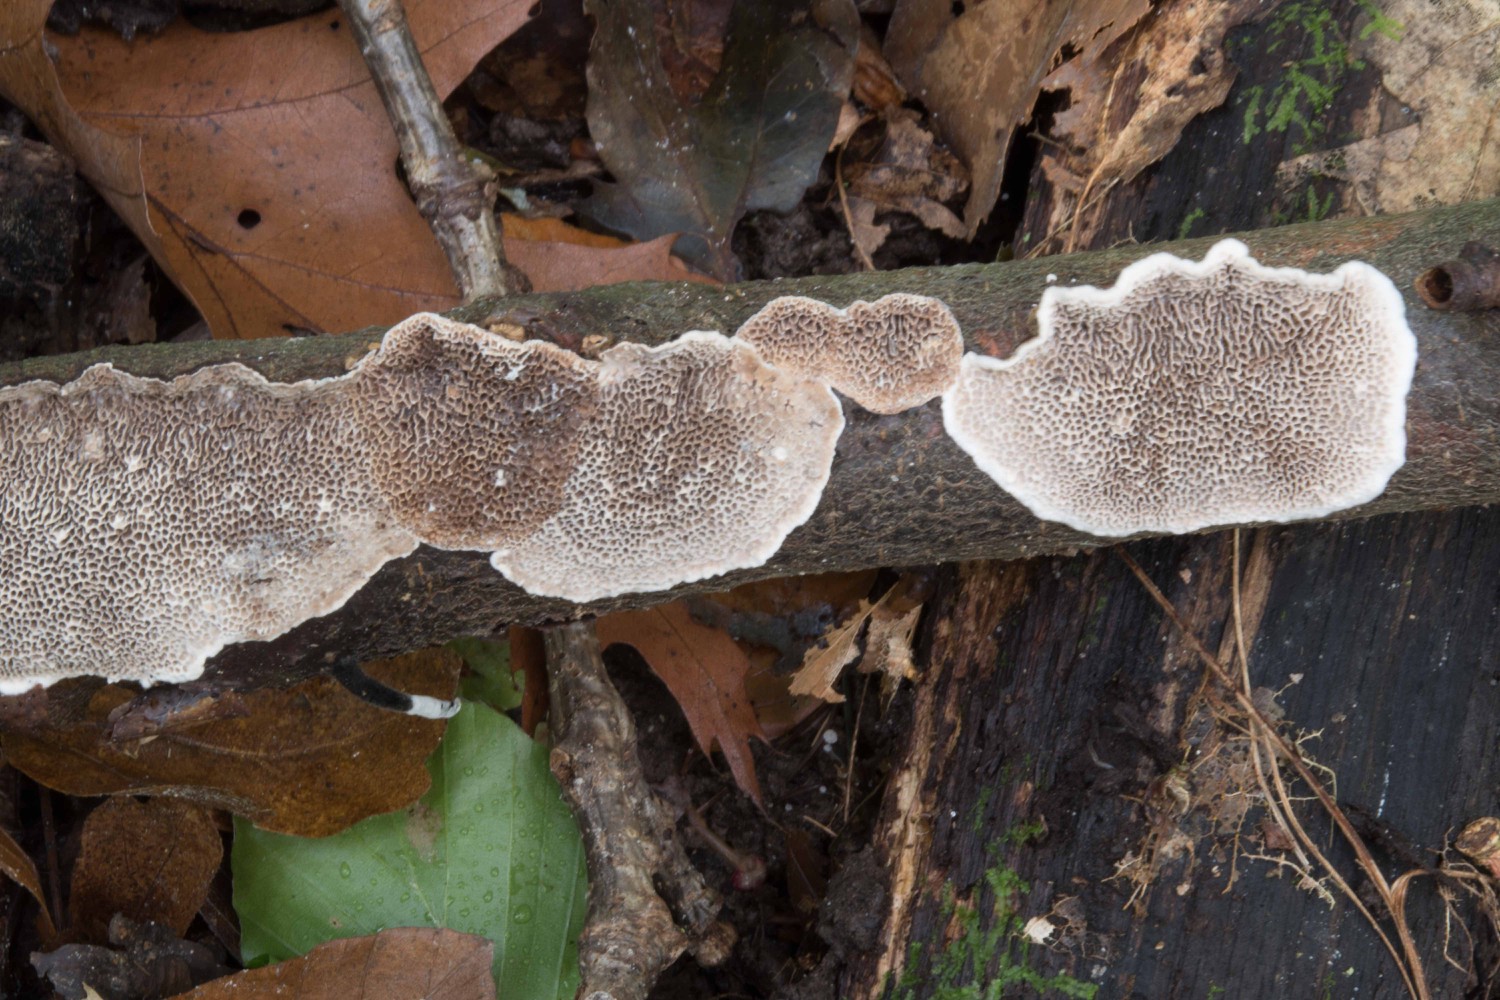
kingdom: Fungi
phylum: Basidiomycota
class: Agaricomycetes
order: Polyporales
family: Polyporaceae
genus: Podofomes
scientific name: Podofomes mollis
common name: blød begporesvamp
